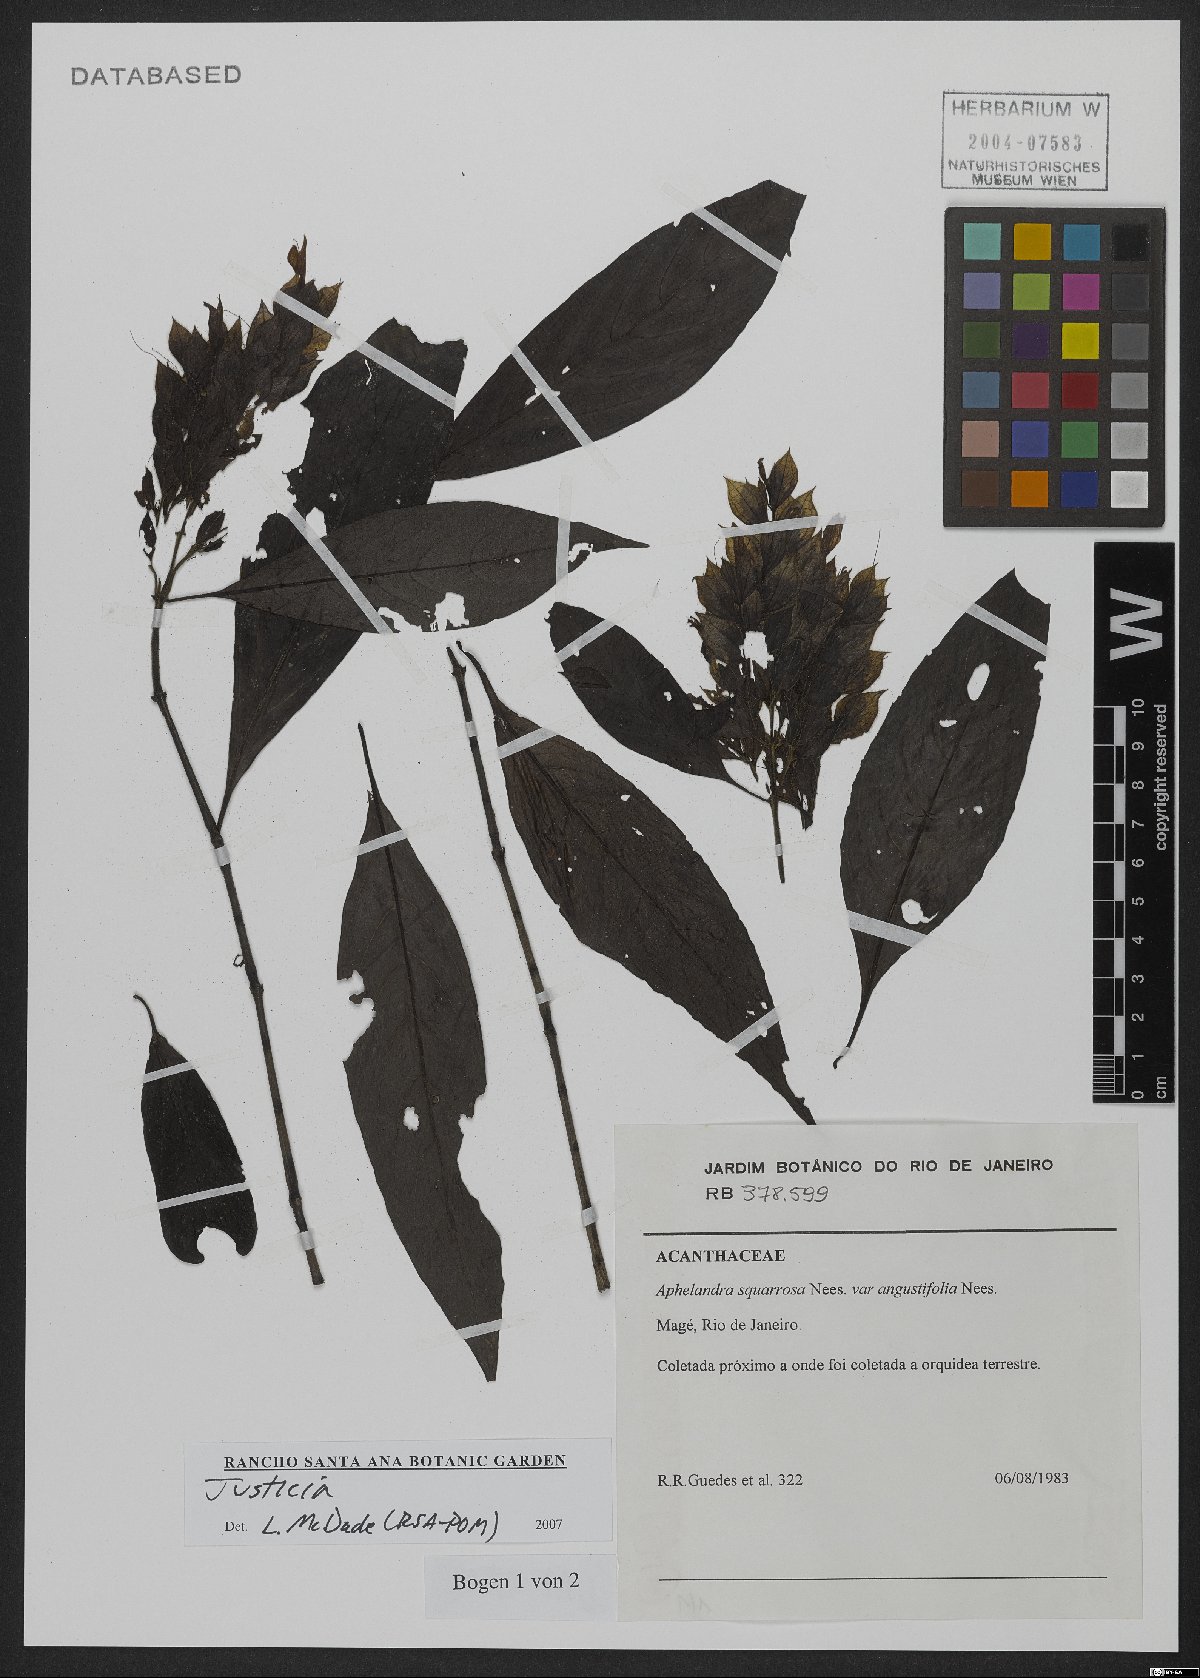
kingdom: Plantae
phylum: Tracheophyta
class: Magnoliopsida
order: Lamiales
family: Acanthaceae
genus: Justicia
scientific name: Justicia
